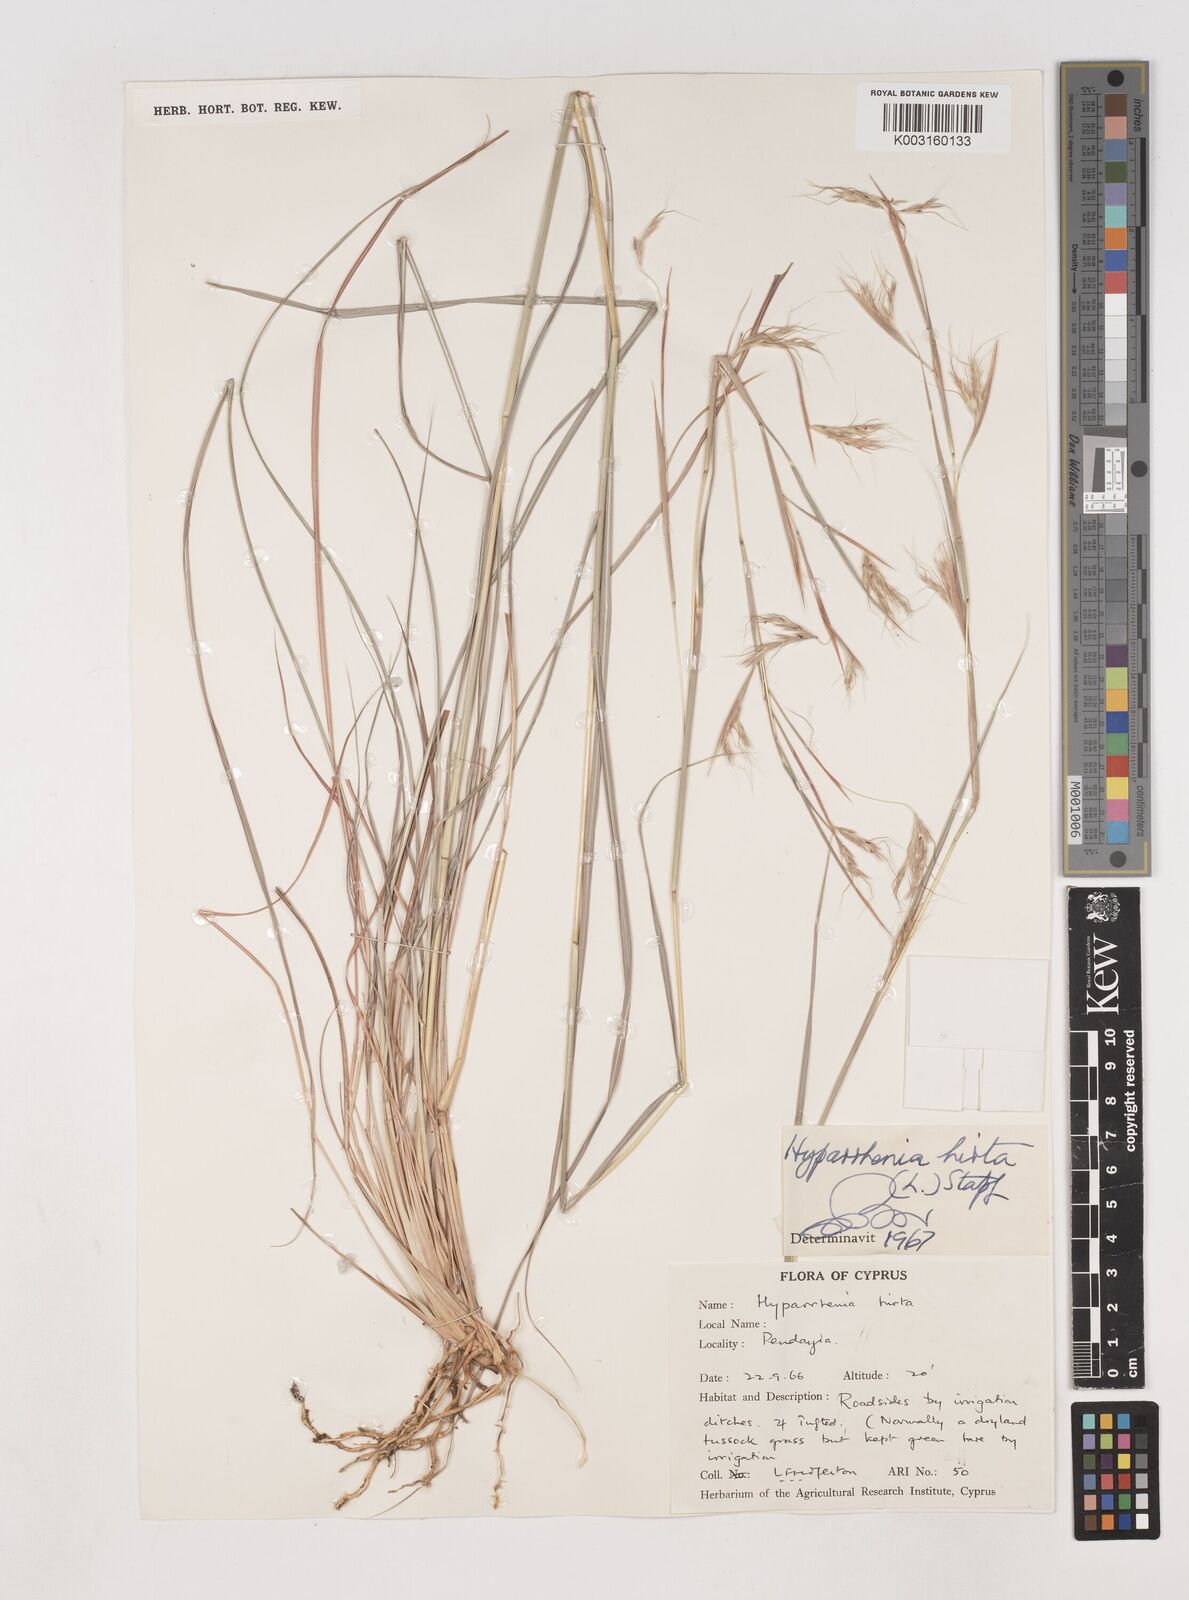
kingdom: Plantae
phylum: Tracheophyta
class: Liliopsida
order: Poales
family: Poaceae
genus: Hyparrhenia
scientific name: Hyparrhenia hirta
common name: Thatching grass
